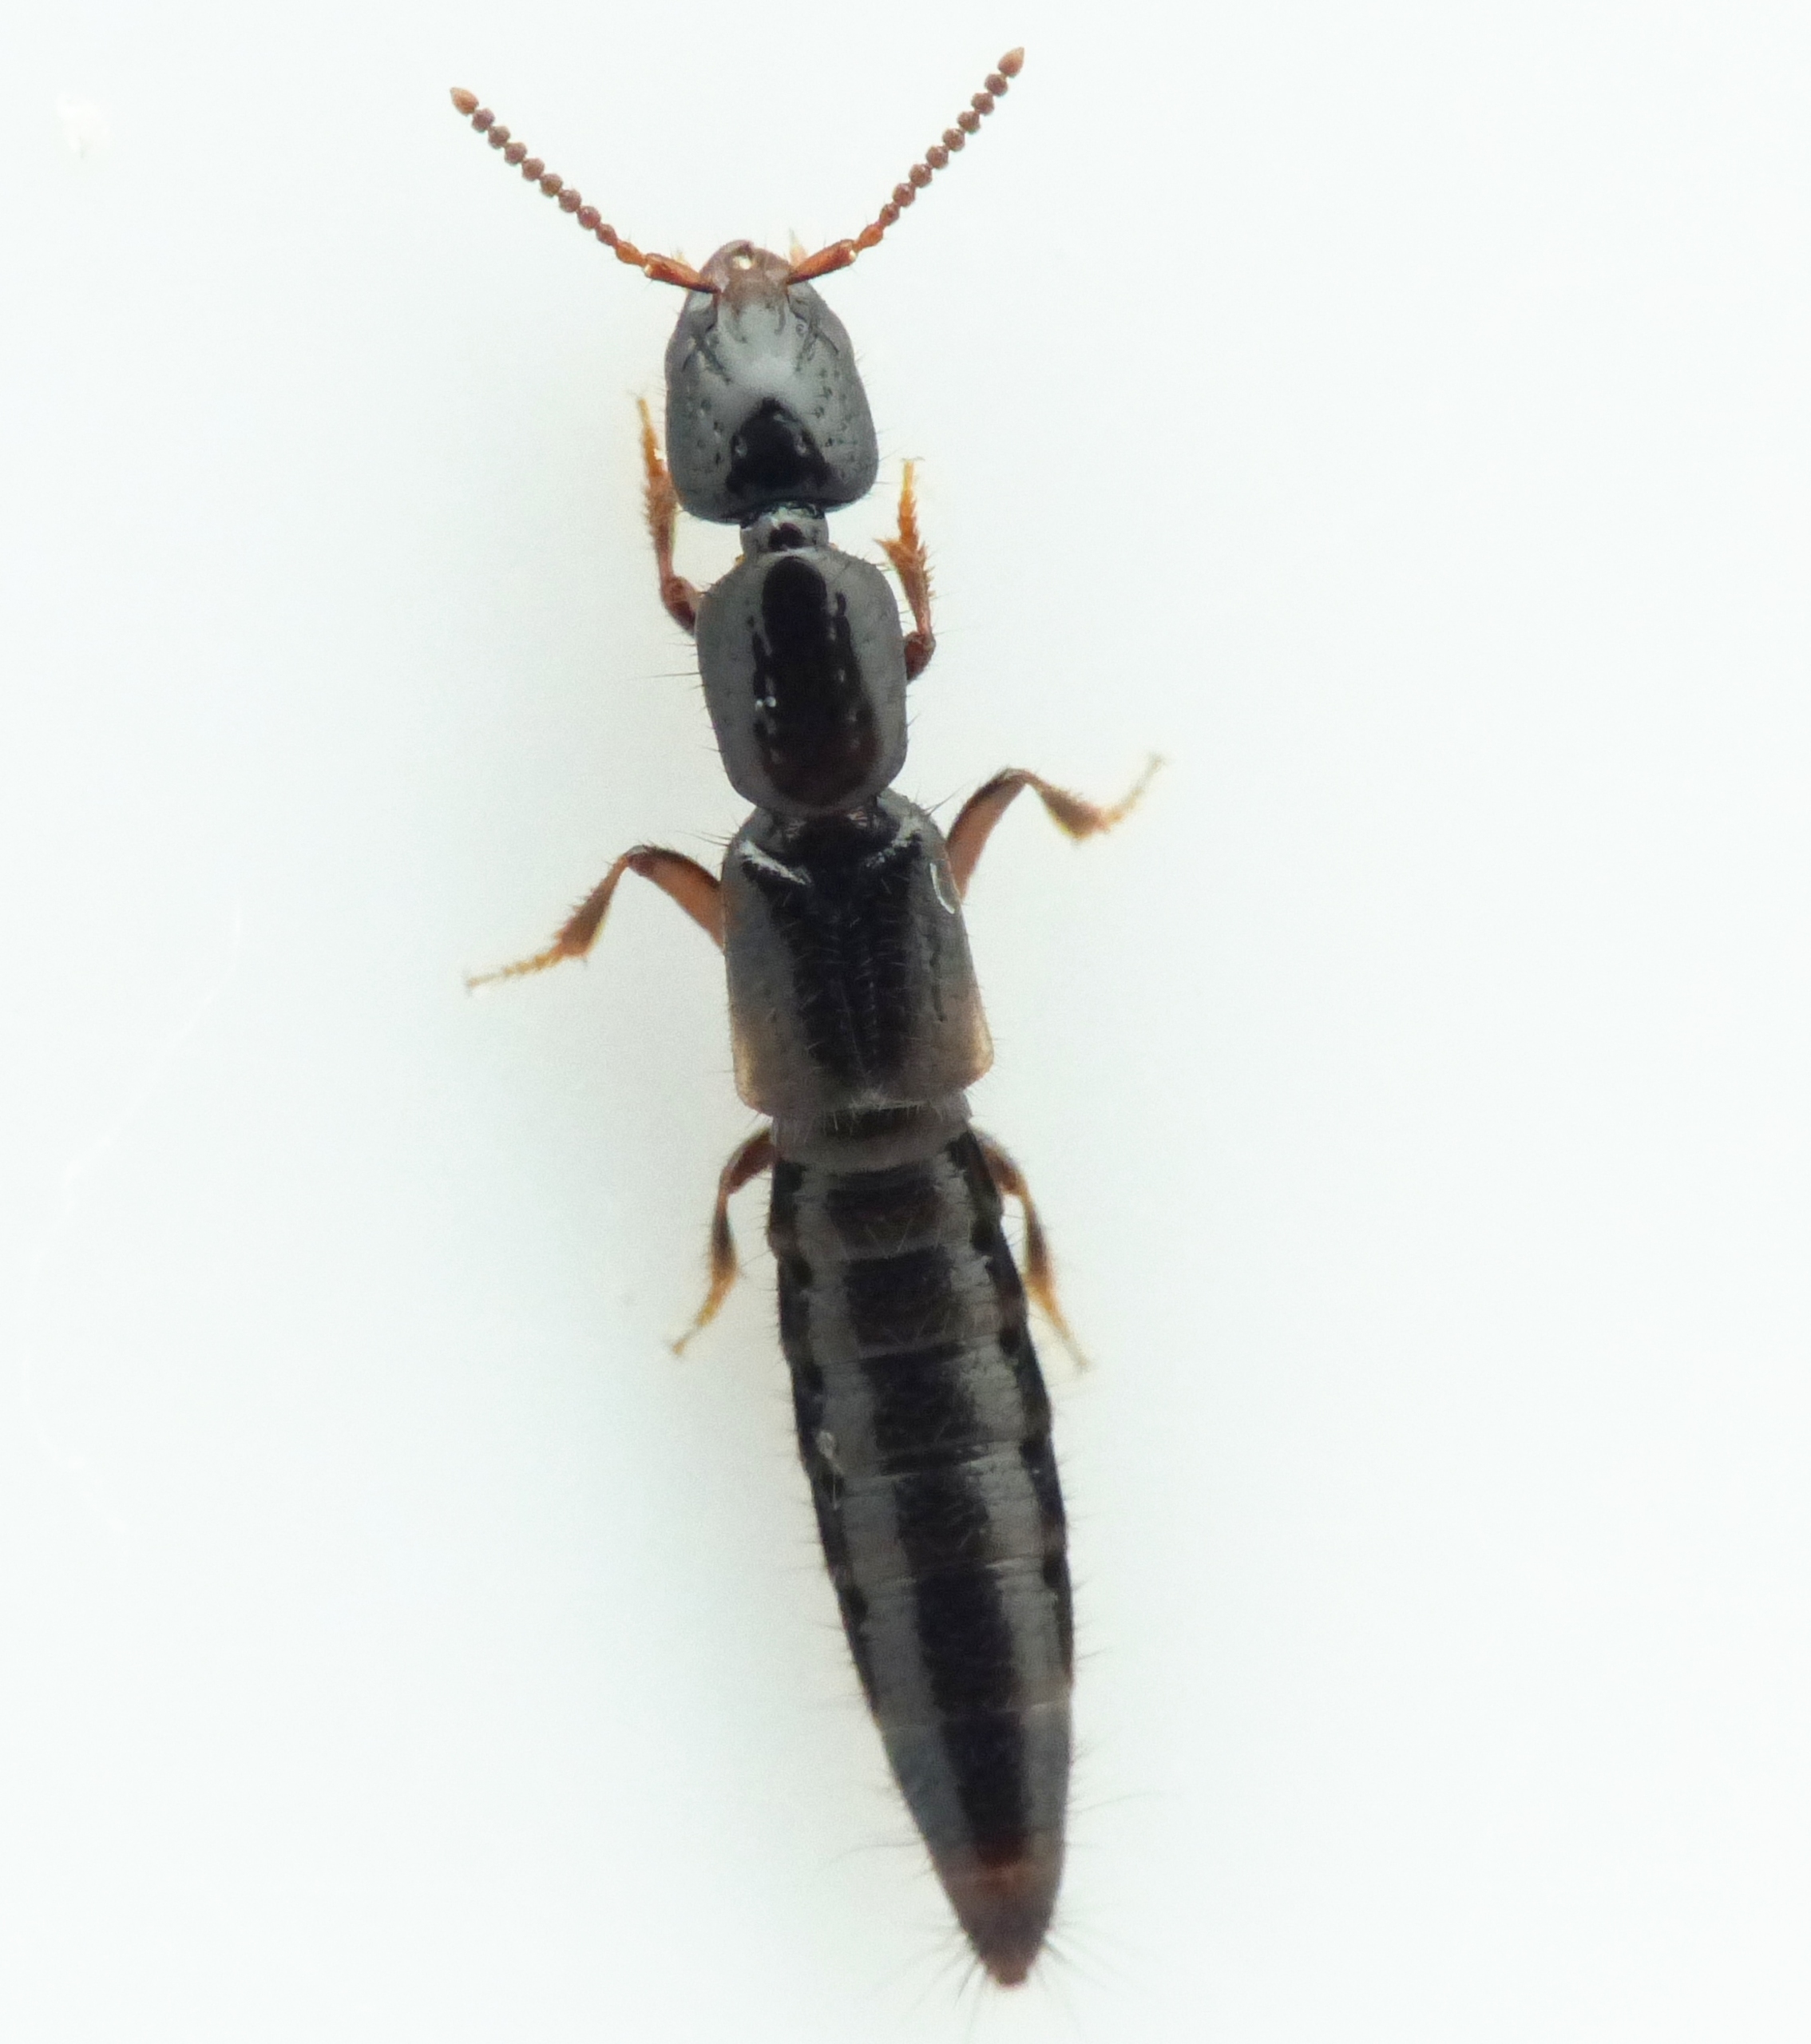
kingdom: Animalia
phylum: Arthropoda
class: Insecta
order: Coleoptera
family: Staphylinidae
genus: Phacophallus
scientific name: Phacophallus parumpunctatus
